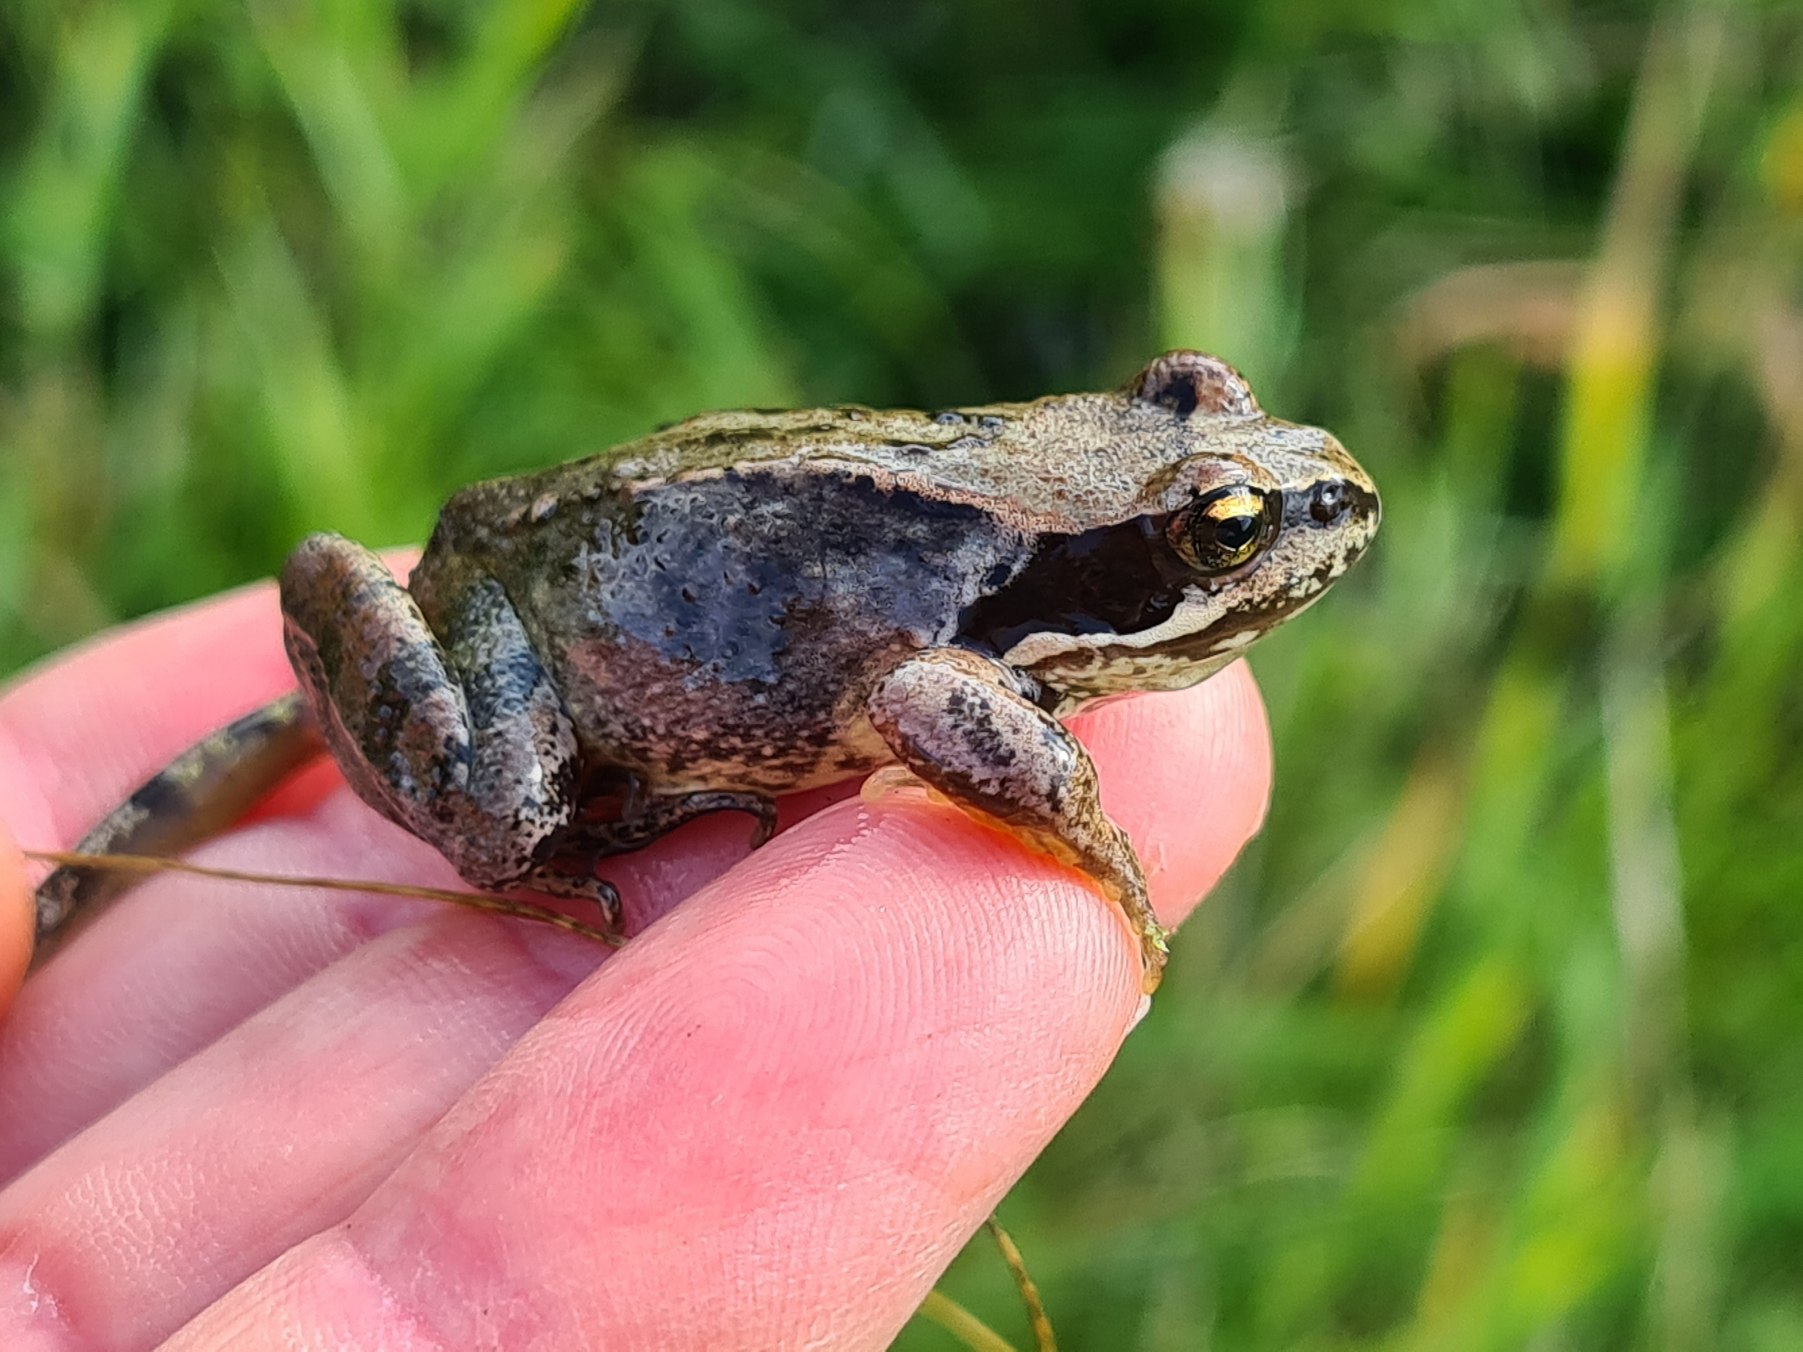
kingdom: Animalia
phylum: Chordata
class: Amphibia
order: Anura
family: Ranidae
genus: Rana
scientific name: Rana temporaria
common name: Butsnudet frø
